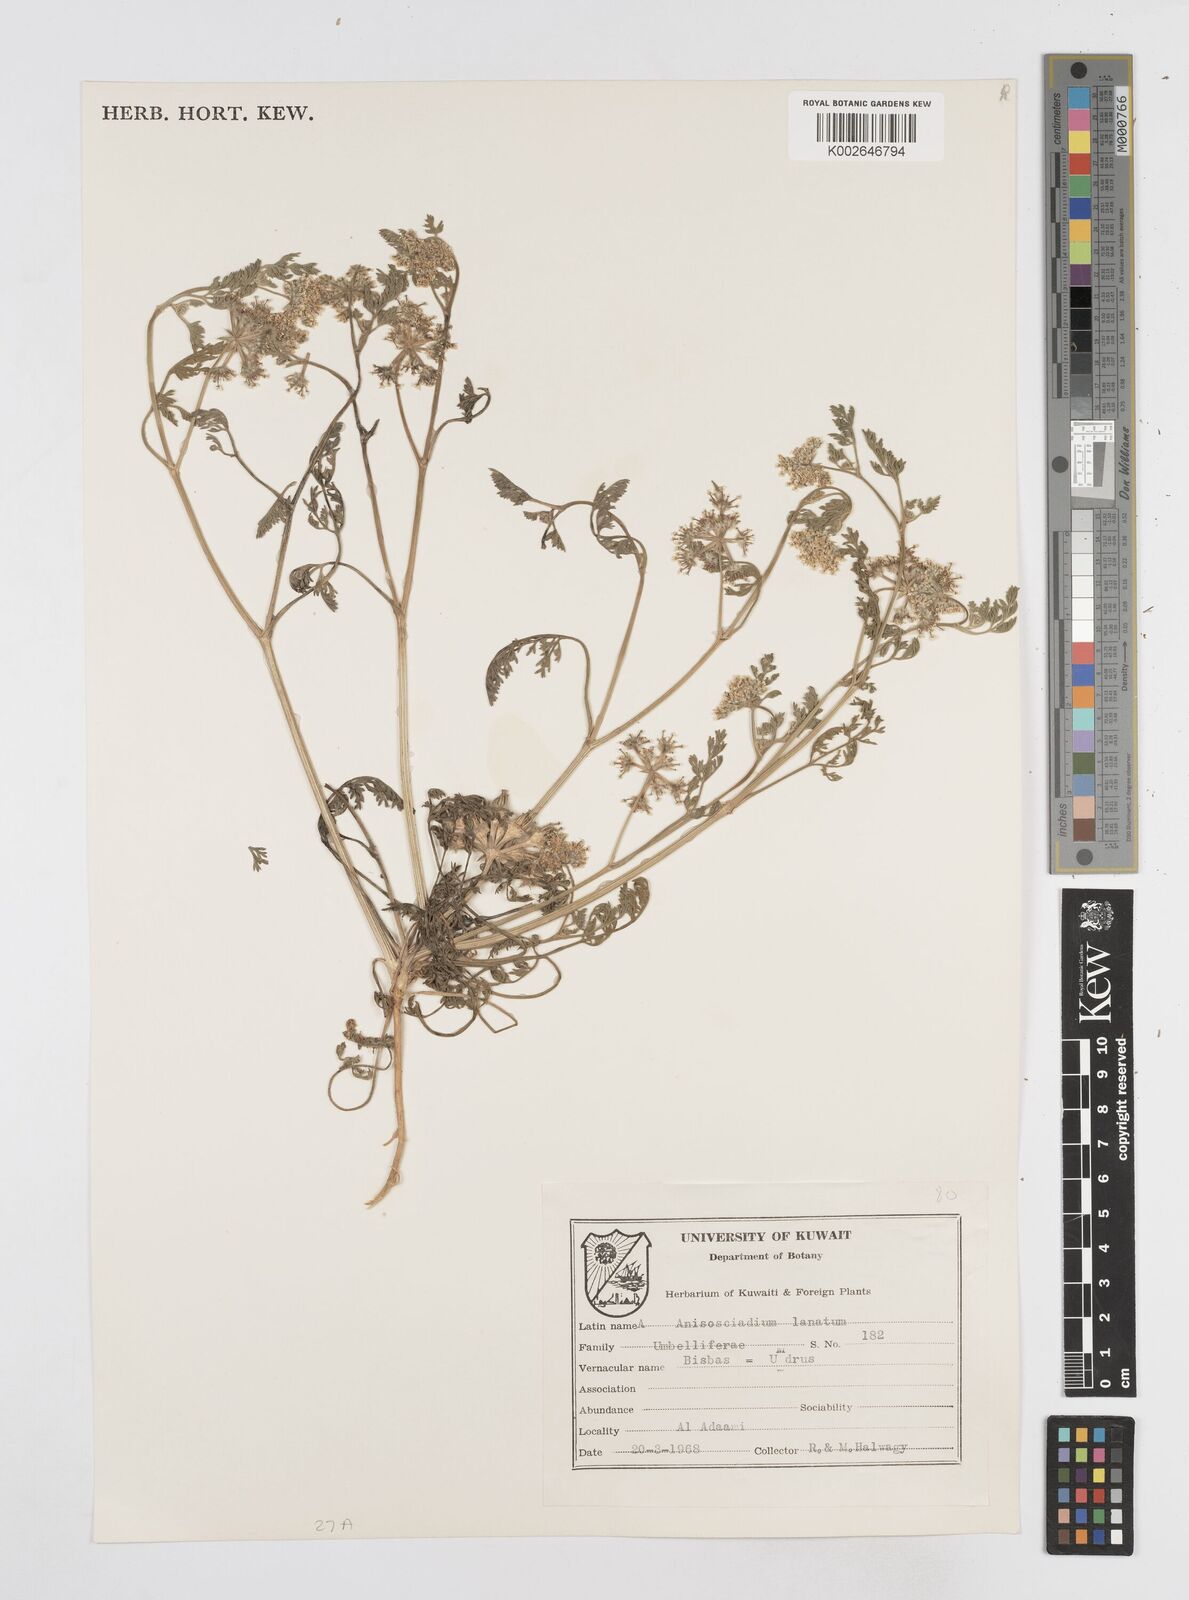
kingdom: Plantae
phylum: Tracheophyta
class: Magnoliopsida
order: Apiales
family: Apiaceae
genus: Anisosciadium
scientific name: Anisosciadium lanatum
